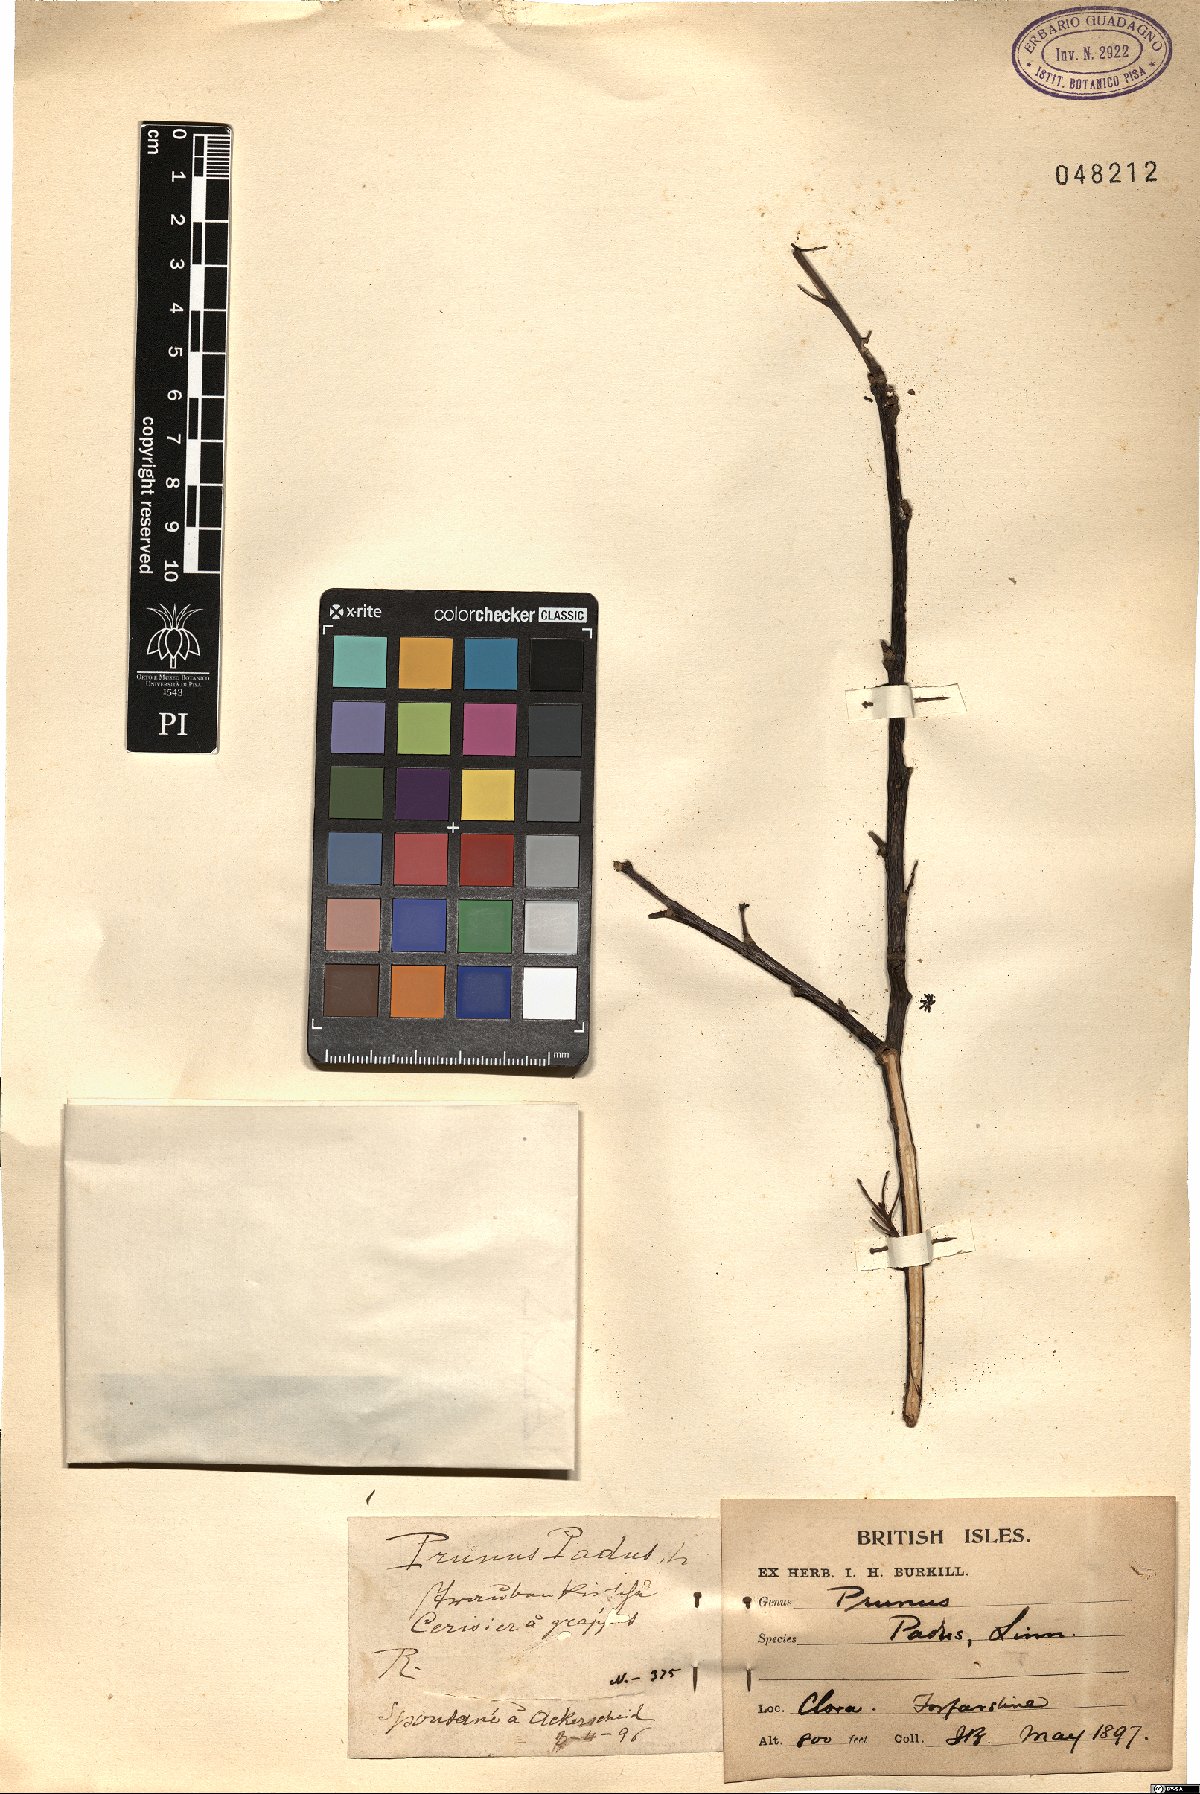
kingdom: Plantae
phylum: Tracheophyta
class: Magnoliopsida
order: Rosales
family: Rosaceae
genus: Prunus
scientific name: Prunus padus
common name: Bird cherry
